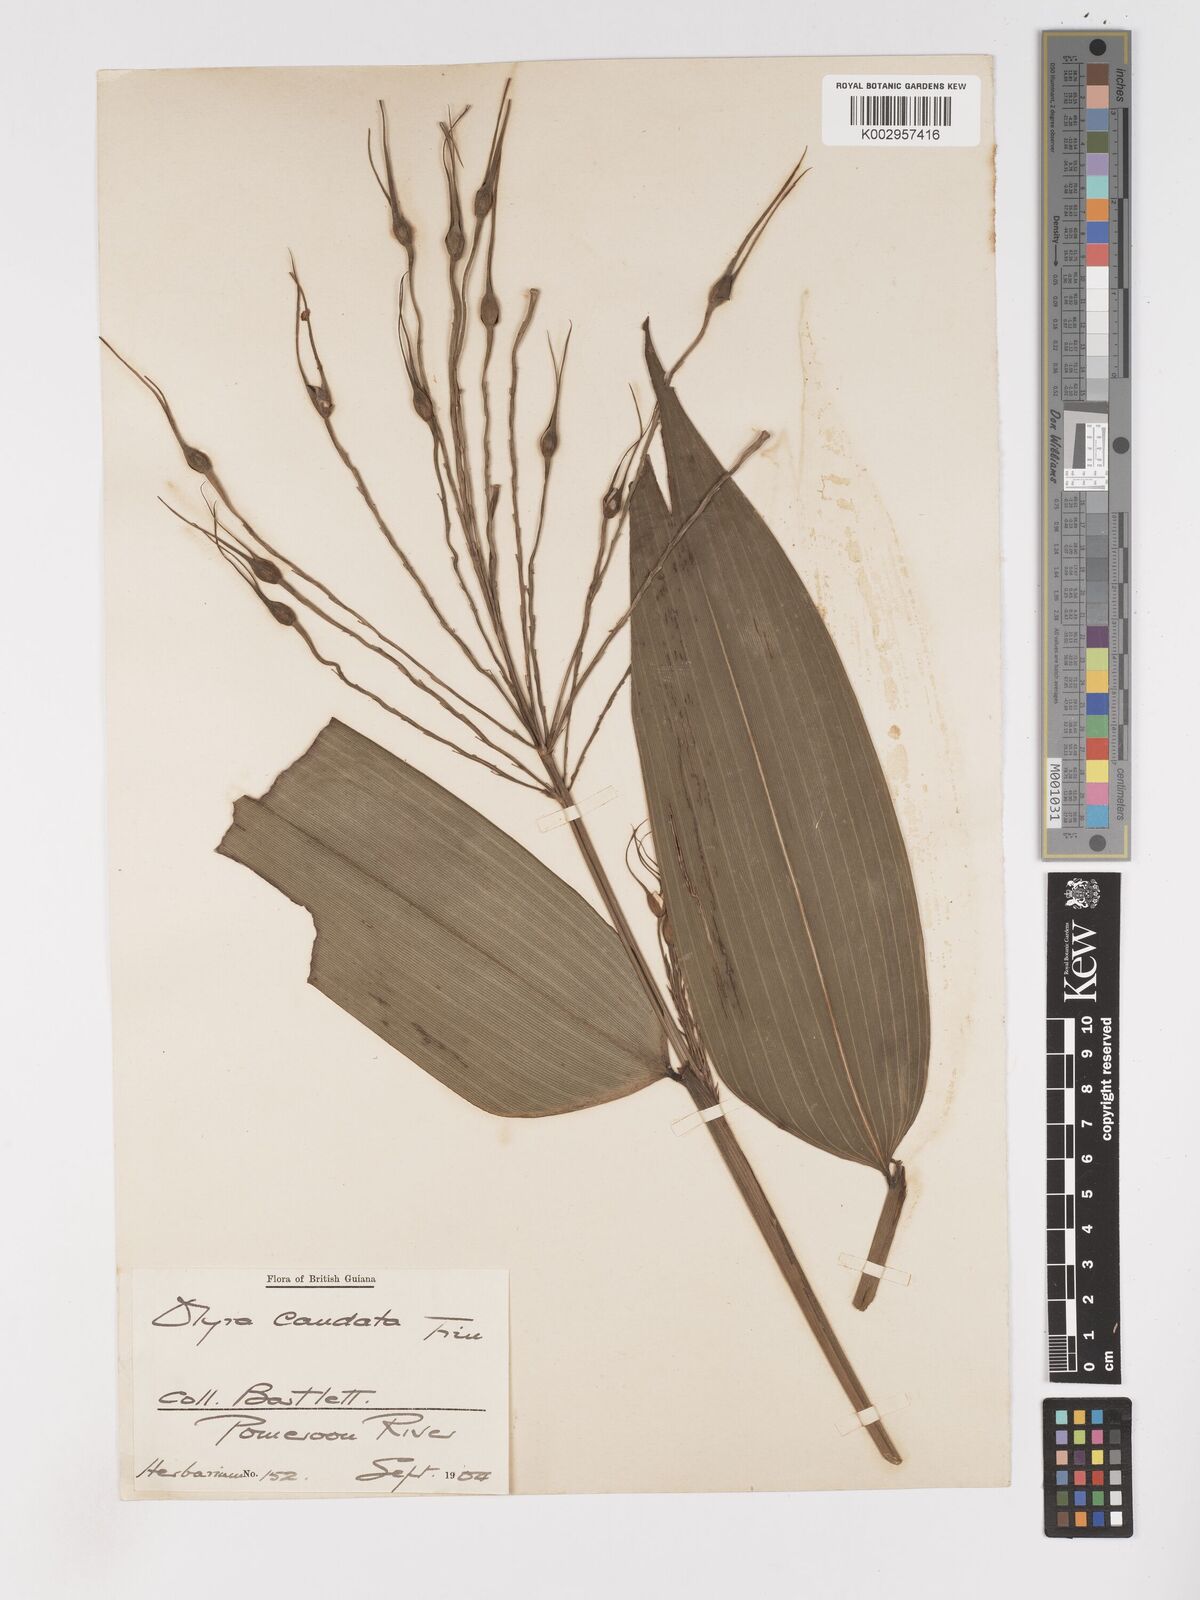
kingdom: Plantae
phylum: Tracheophyta
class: Liliopsida
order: Poales
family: Poaceae
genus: Olyra
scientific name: Olyra caudata
